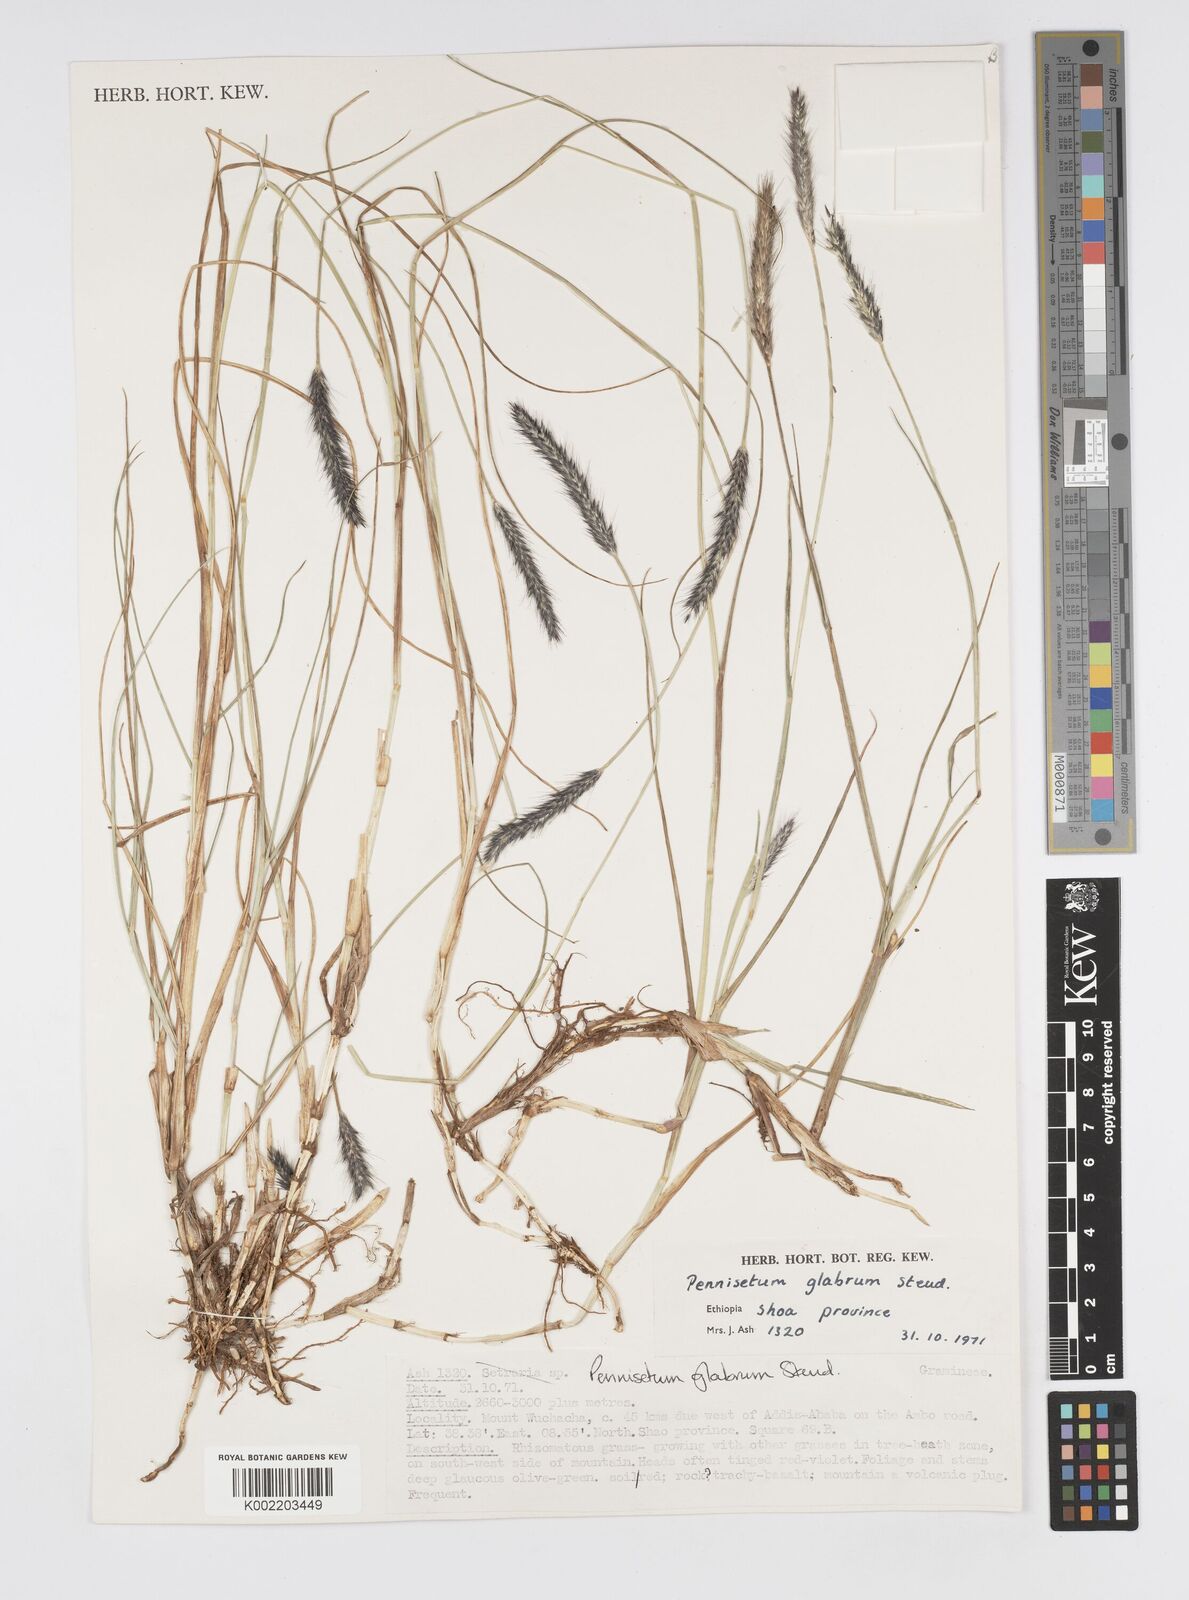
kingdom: Plantae
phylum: Tracheophyta
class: Liliopsida
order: Poales
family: Poaceae
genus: Cenchrus
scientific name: Cenchrus geniculatus
